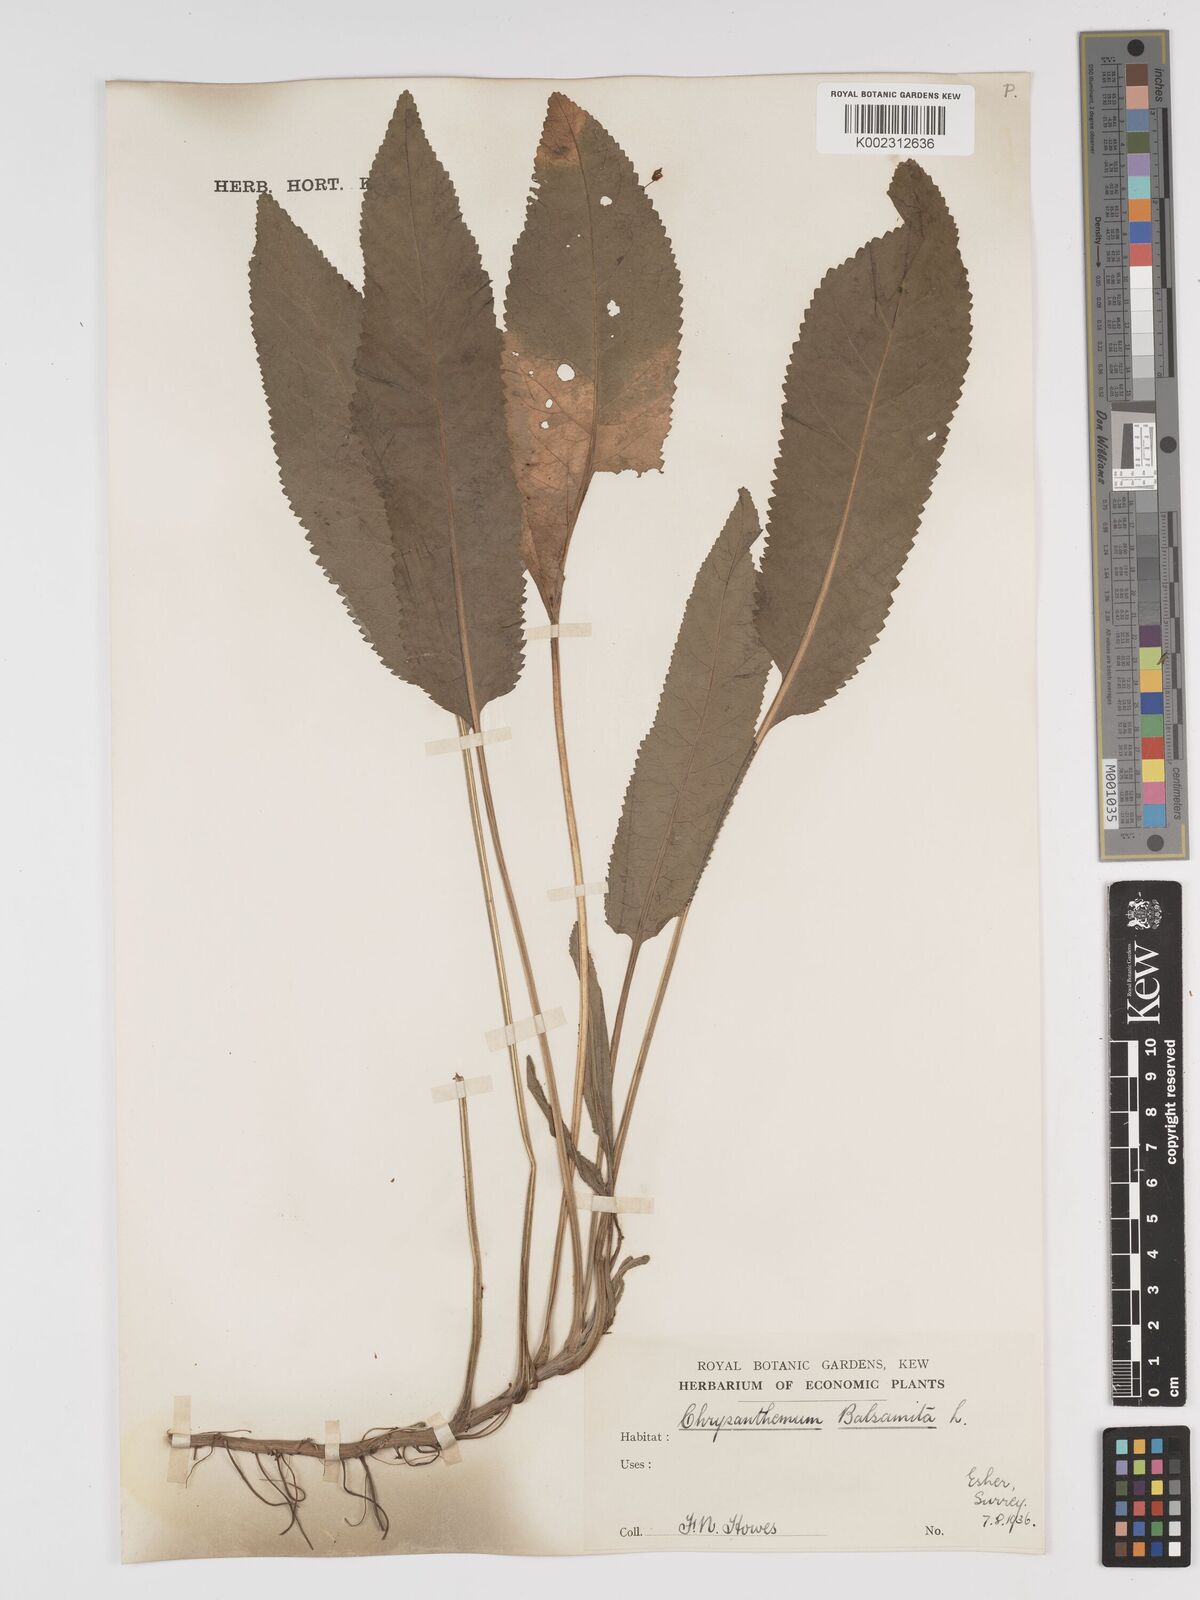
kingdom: Plantae
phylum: Tracheophyta
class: Magnoliopsida
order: Asterales
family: Asteraceae
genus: Tanacetum
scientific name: Tanacetum balsamita
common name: Costmary
